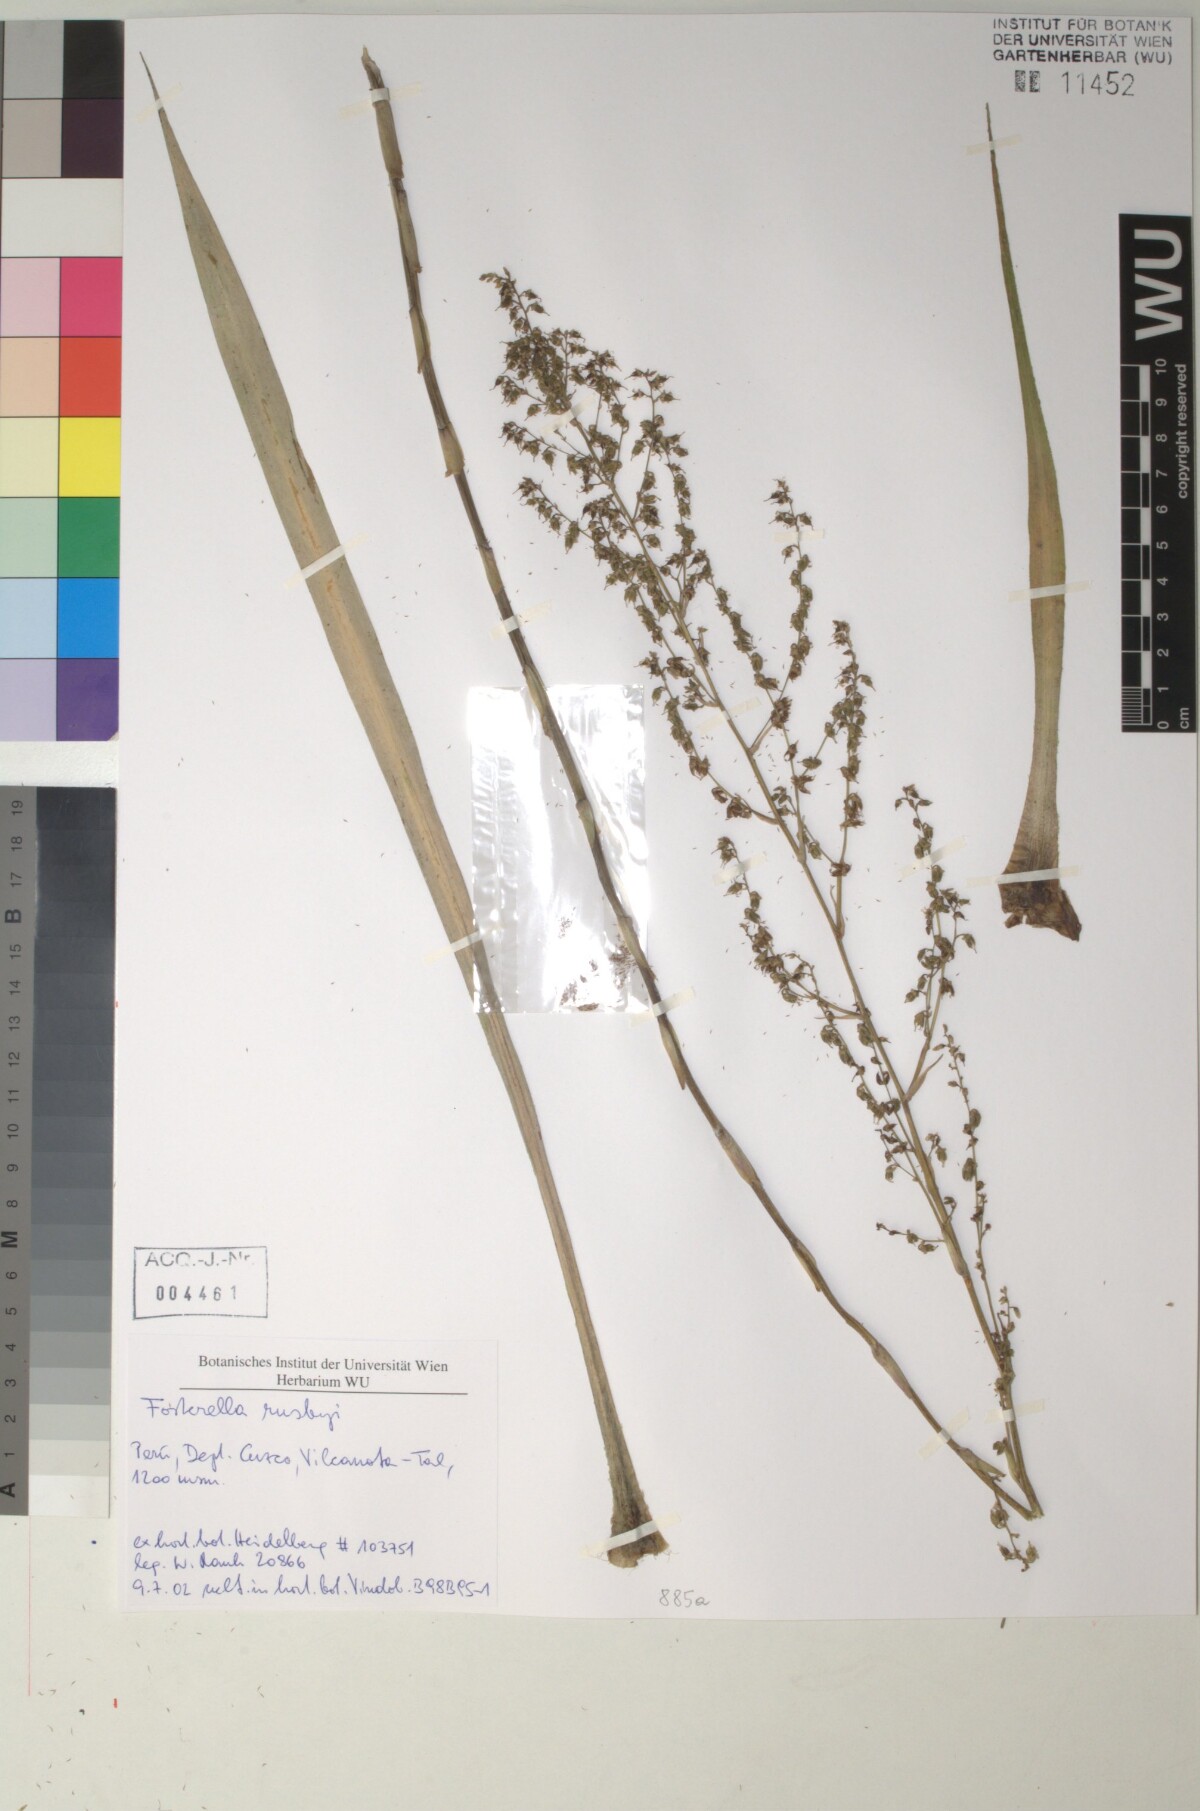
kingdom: Plantae
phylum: Tracheophyta
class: Liliopsida
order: Poales
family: Bromeliaceae
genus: Fosterella
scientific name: Fosterella robertreadii
